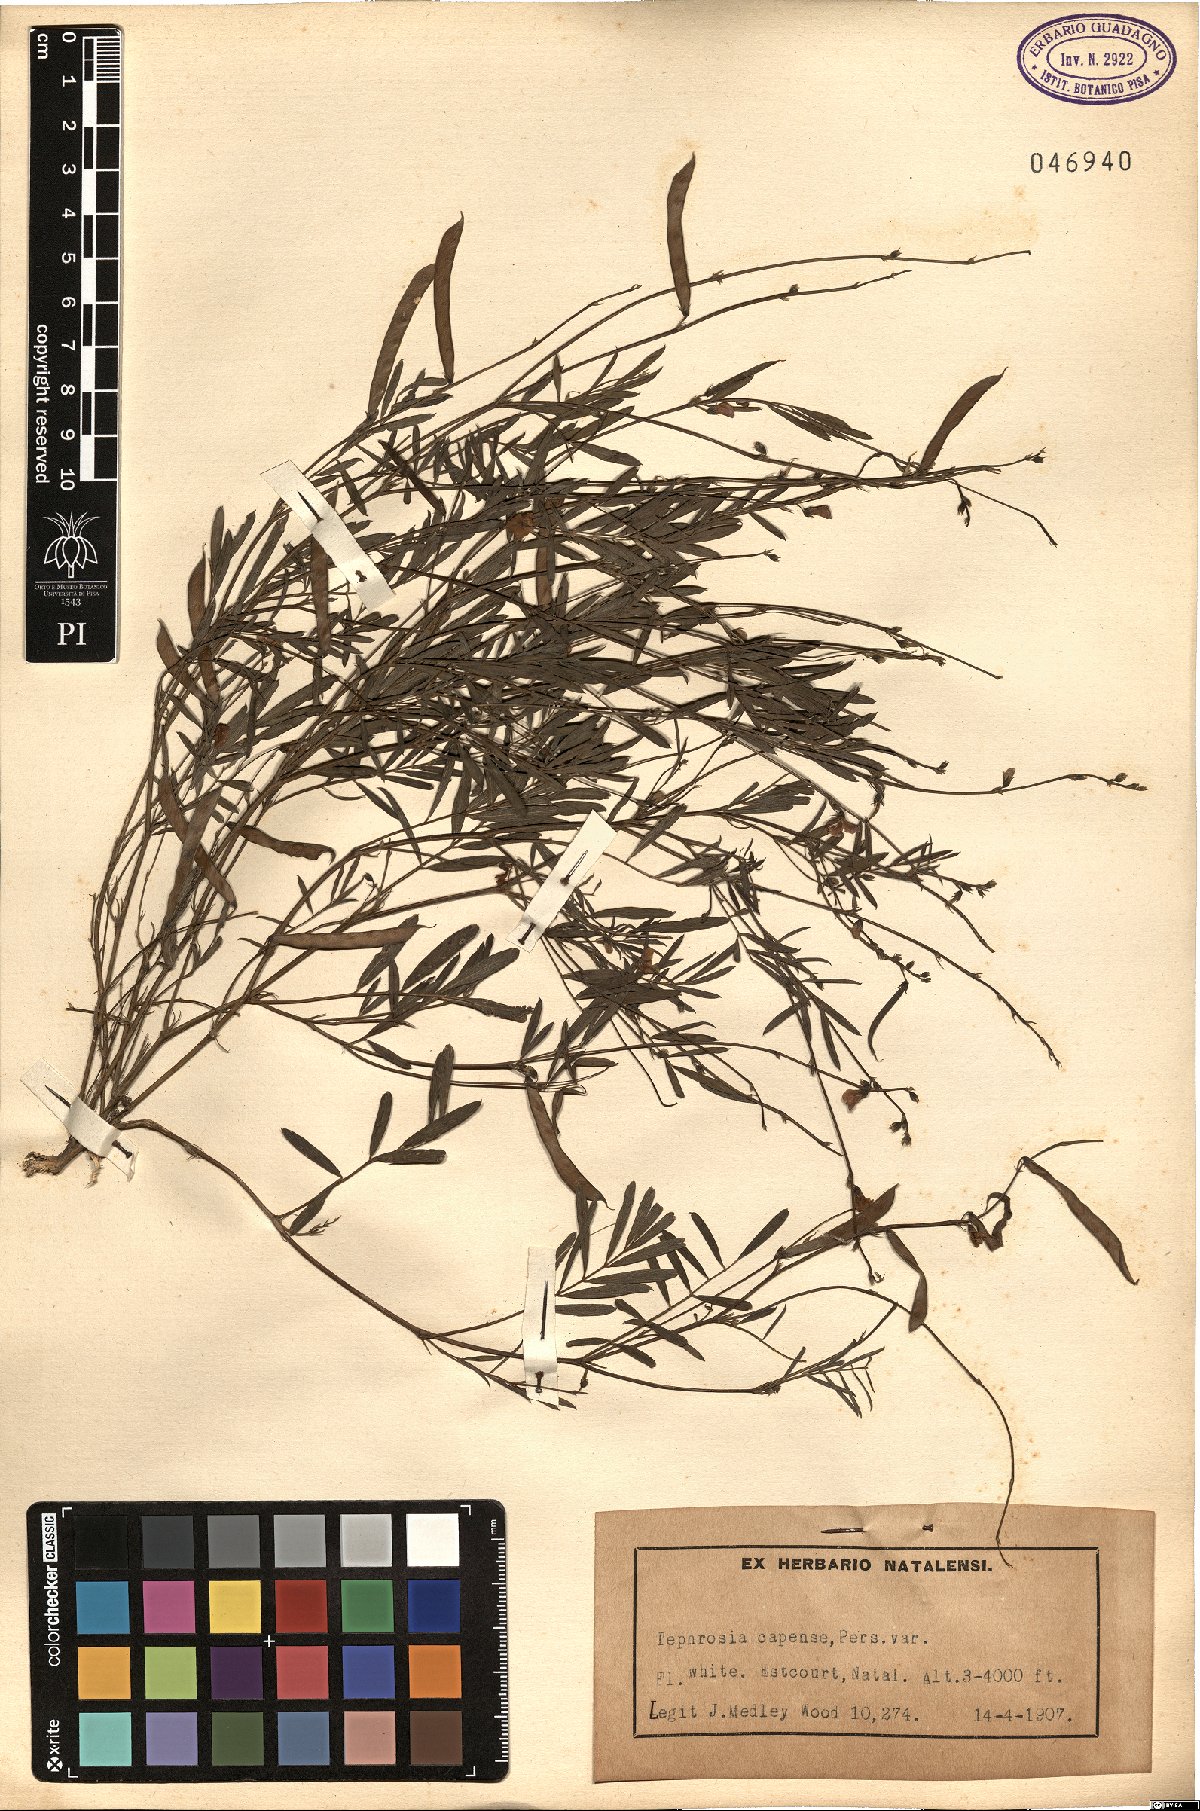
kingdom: Plantae
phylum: Tracheophyta
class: Magnoliopsida
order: Fabales
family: Fabaceae
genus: Tephrosia
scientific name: Tephrosia capensis
